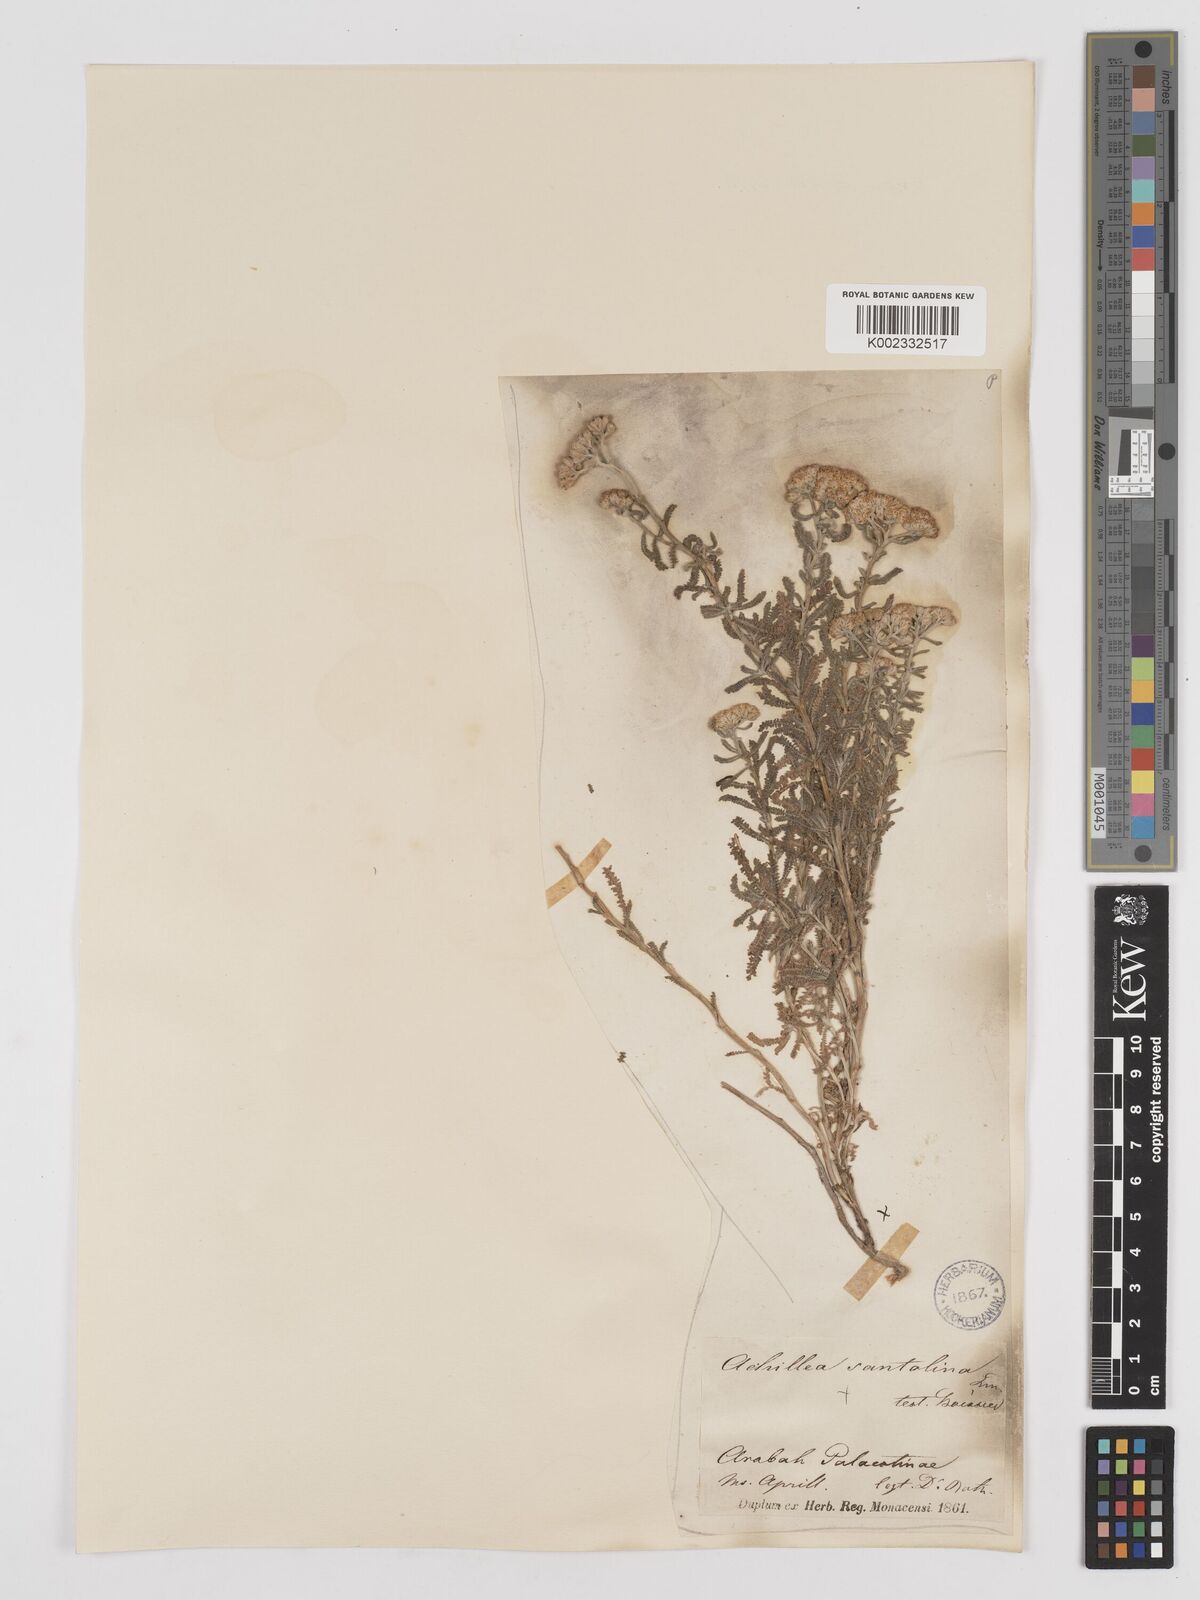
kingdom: Plantae
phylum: Tracheophyta
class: Magnoliopsida
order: Asterales
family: Asteraceae
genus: Achillea
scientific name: Achillea tenuifolia
